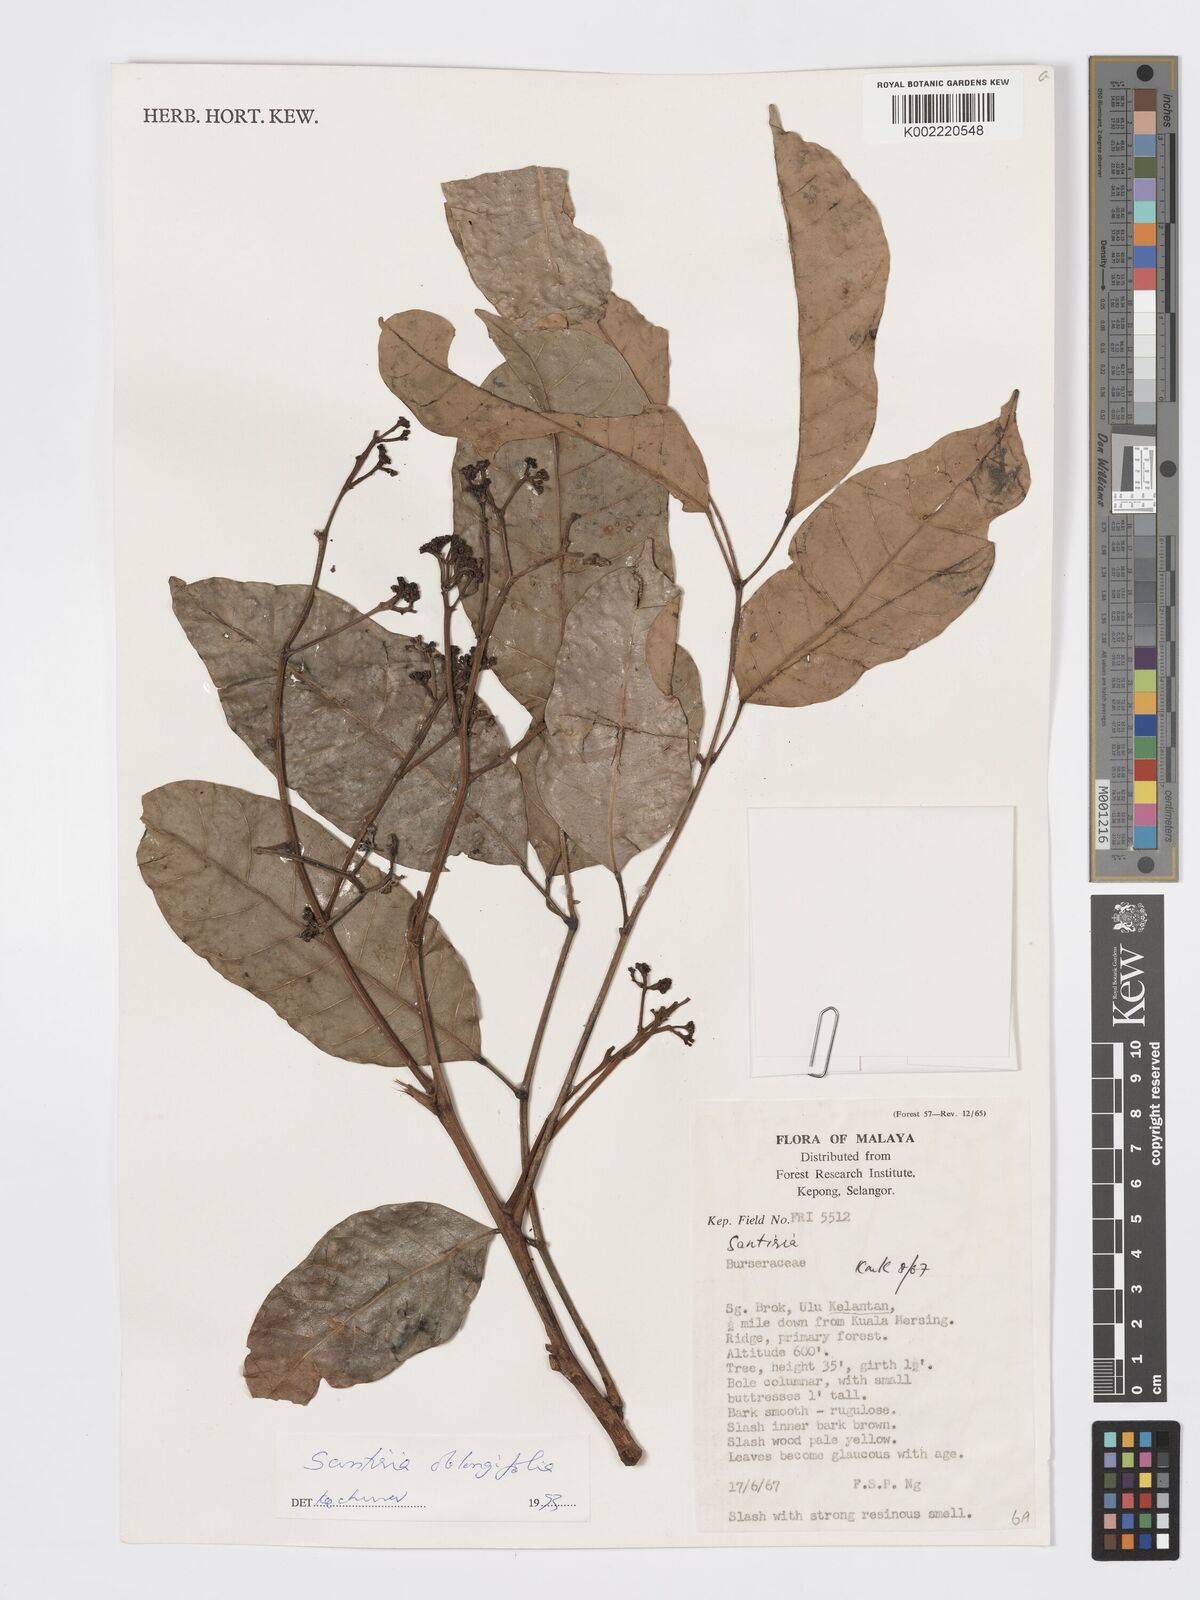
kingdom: Plantae
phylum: Tracheophyta
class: Magnoliopsida
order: Sapindales
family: Burseraceae
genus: Santiria
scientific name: Santiria oblongifolia
